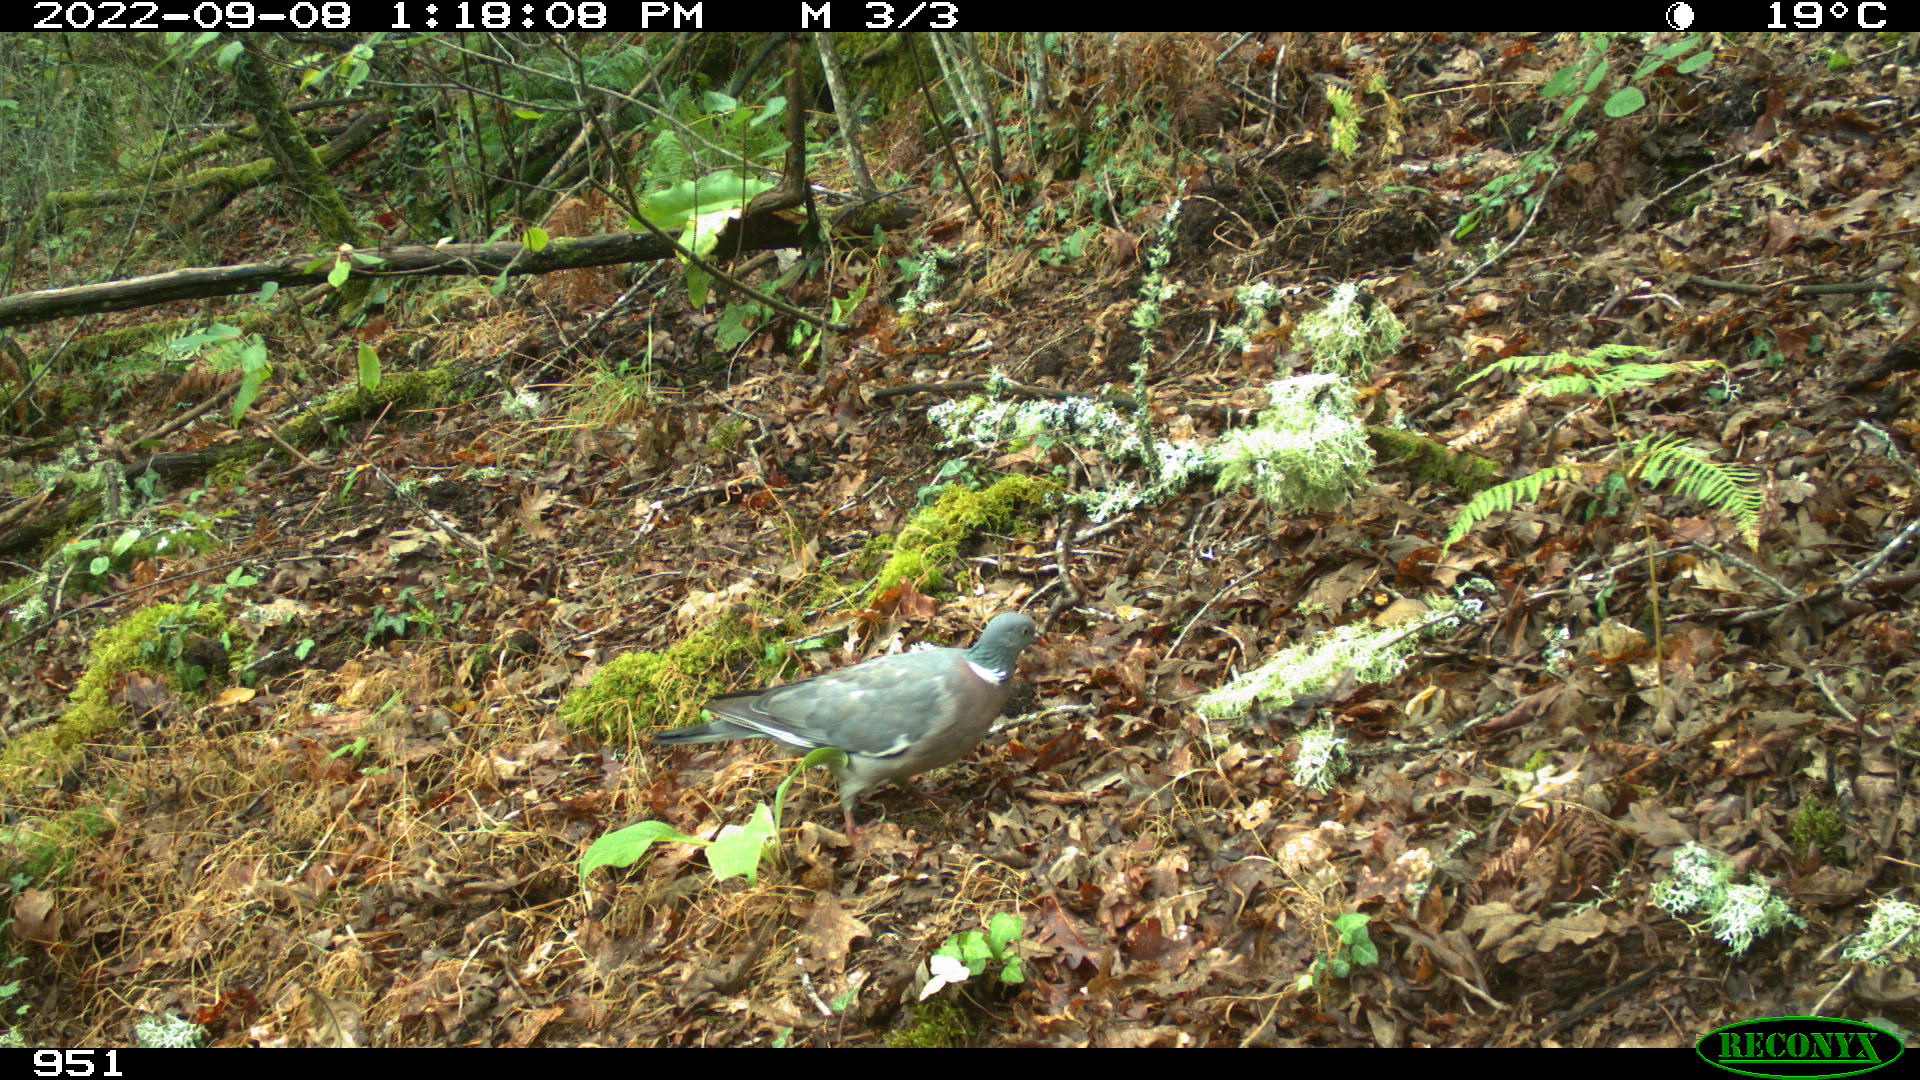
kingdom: Animalia
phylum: Chordata
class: Aves
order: Columbiformes
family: Columbidae
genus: Columba
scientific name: Columba palumbus
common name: Common wood pigeon
